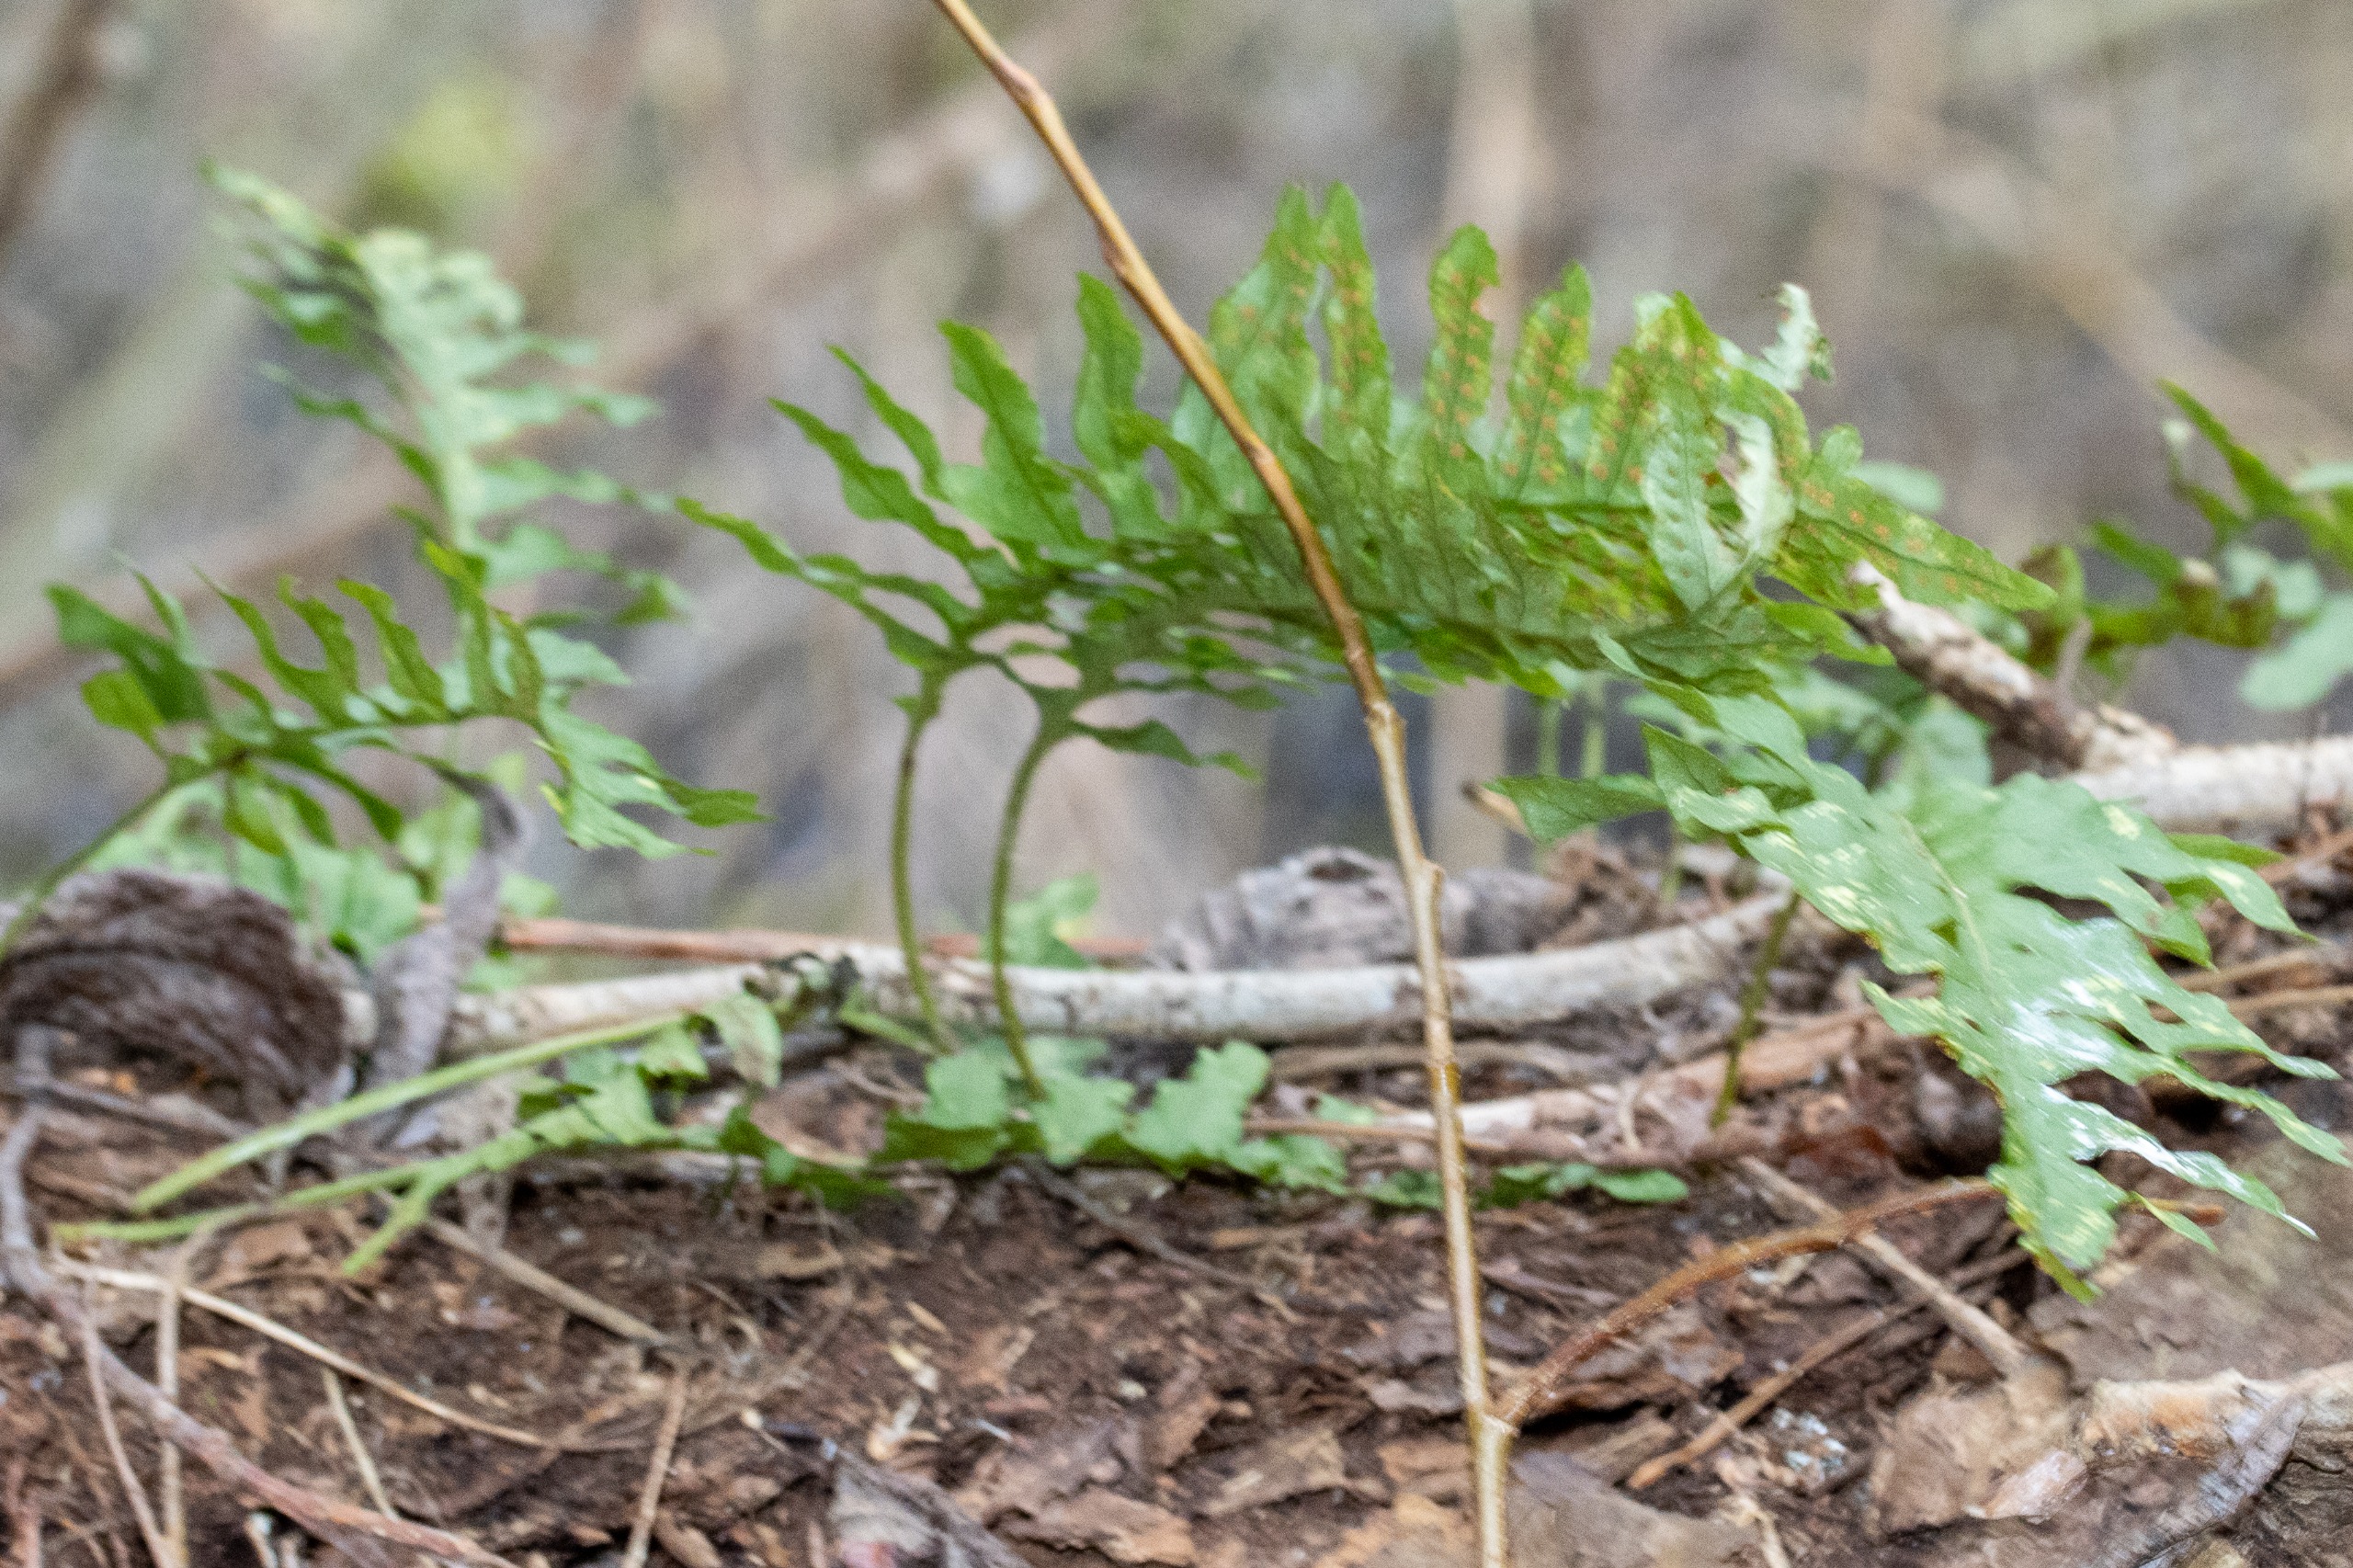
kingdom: Plantae
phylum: Tracheophyta
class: Polypodiopsida
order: Polypodiales
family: Polypodiaceae
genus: Polypodium
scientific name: Polypodium vulgare
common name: Almindelig engelsød
